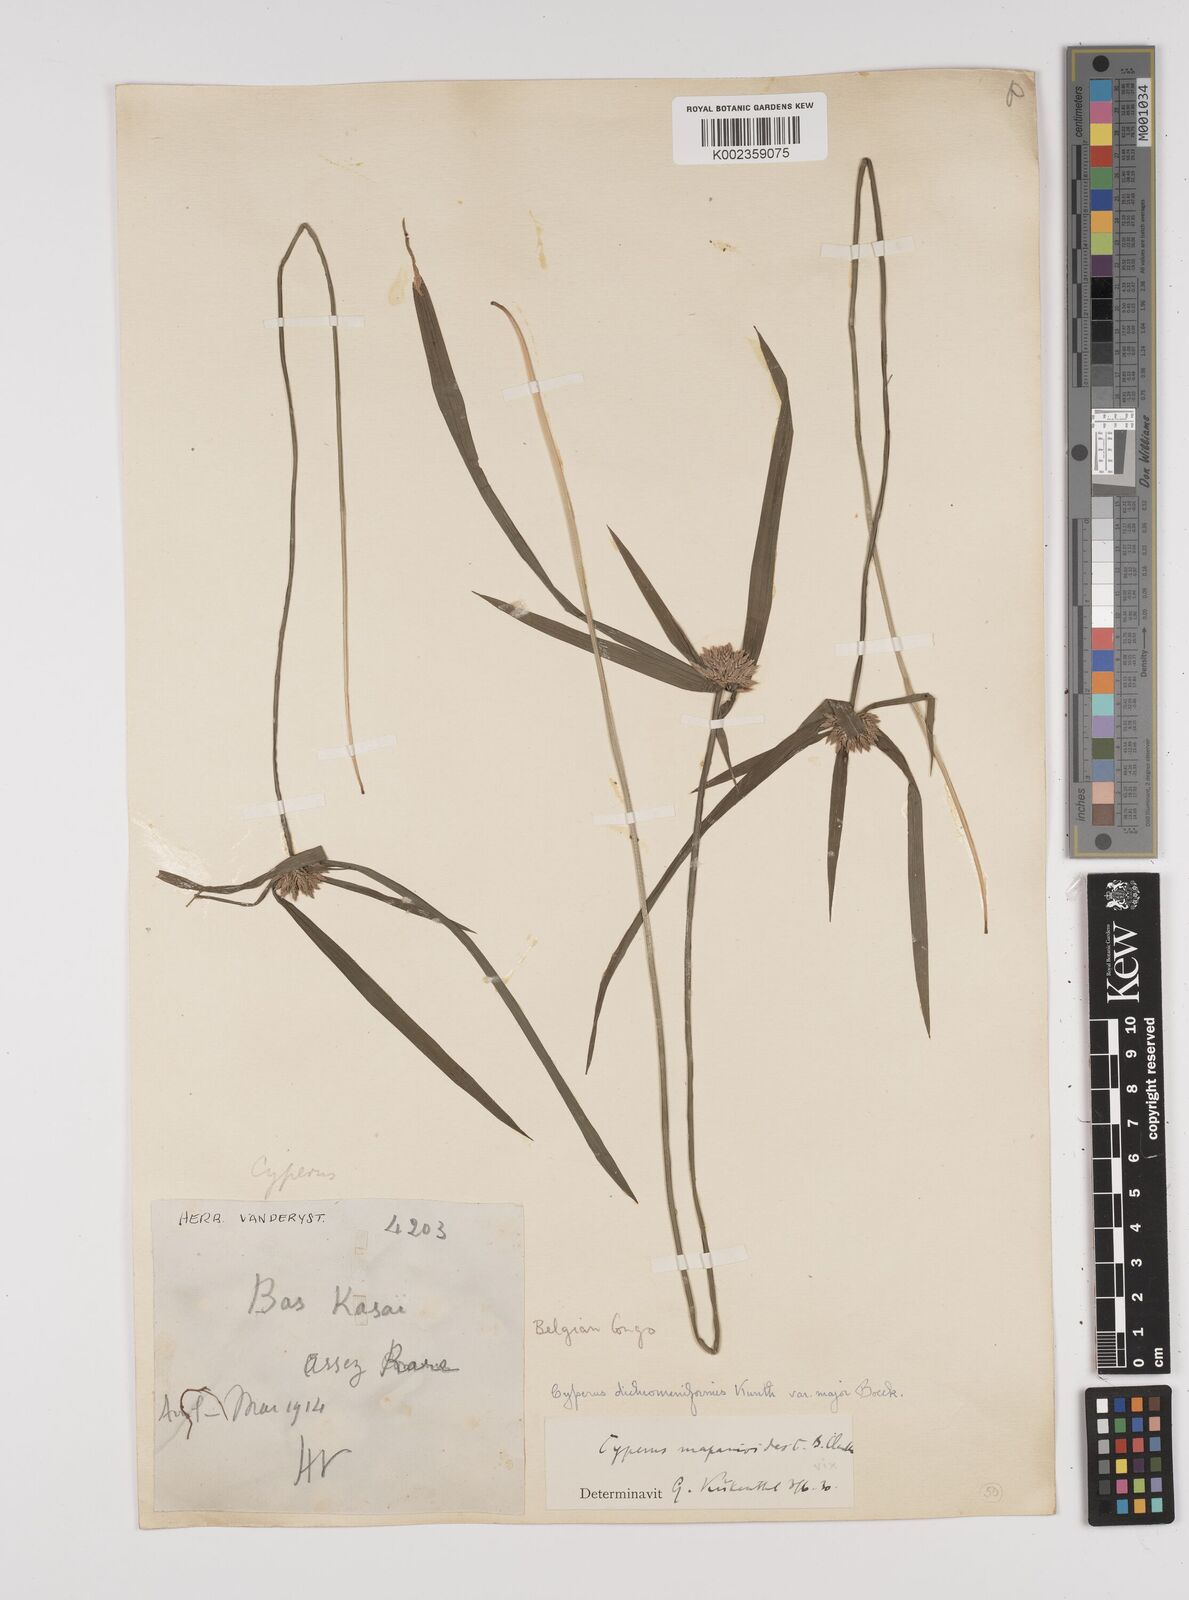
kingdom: Plantae
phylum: Tracheophyta
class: Liliopsida
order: Poales
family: Cyperaceae
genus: Cyperus
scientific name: Cyperus mapanioides
